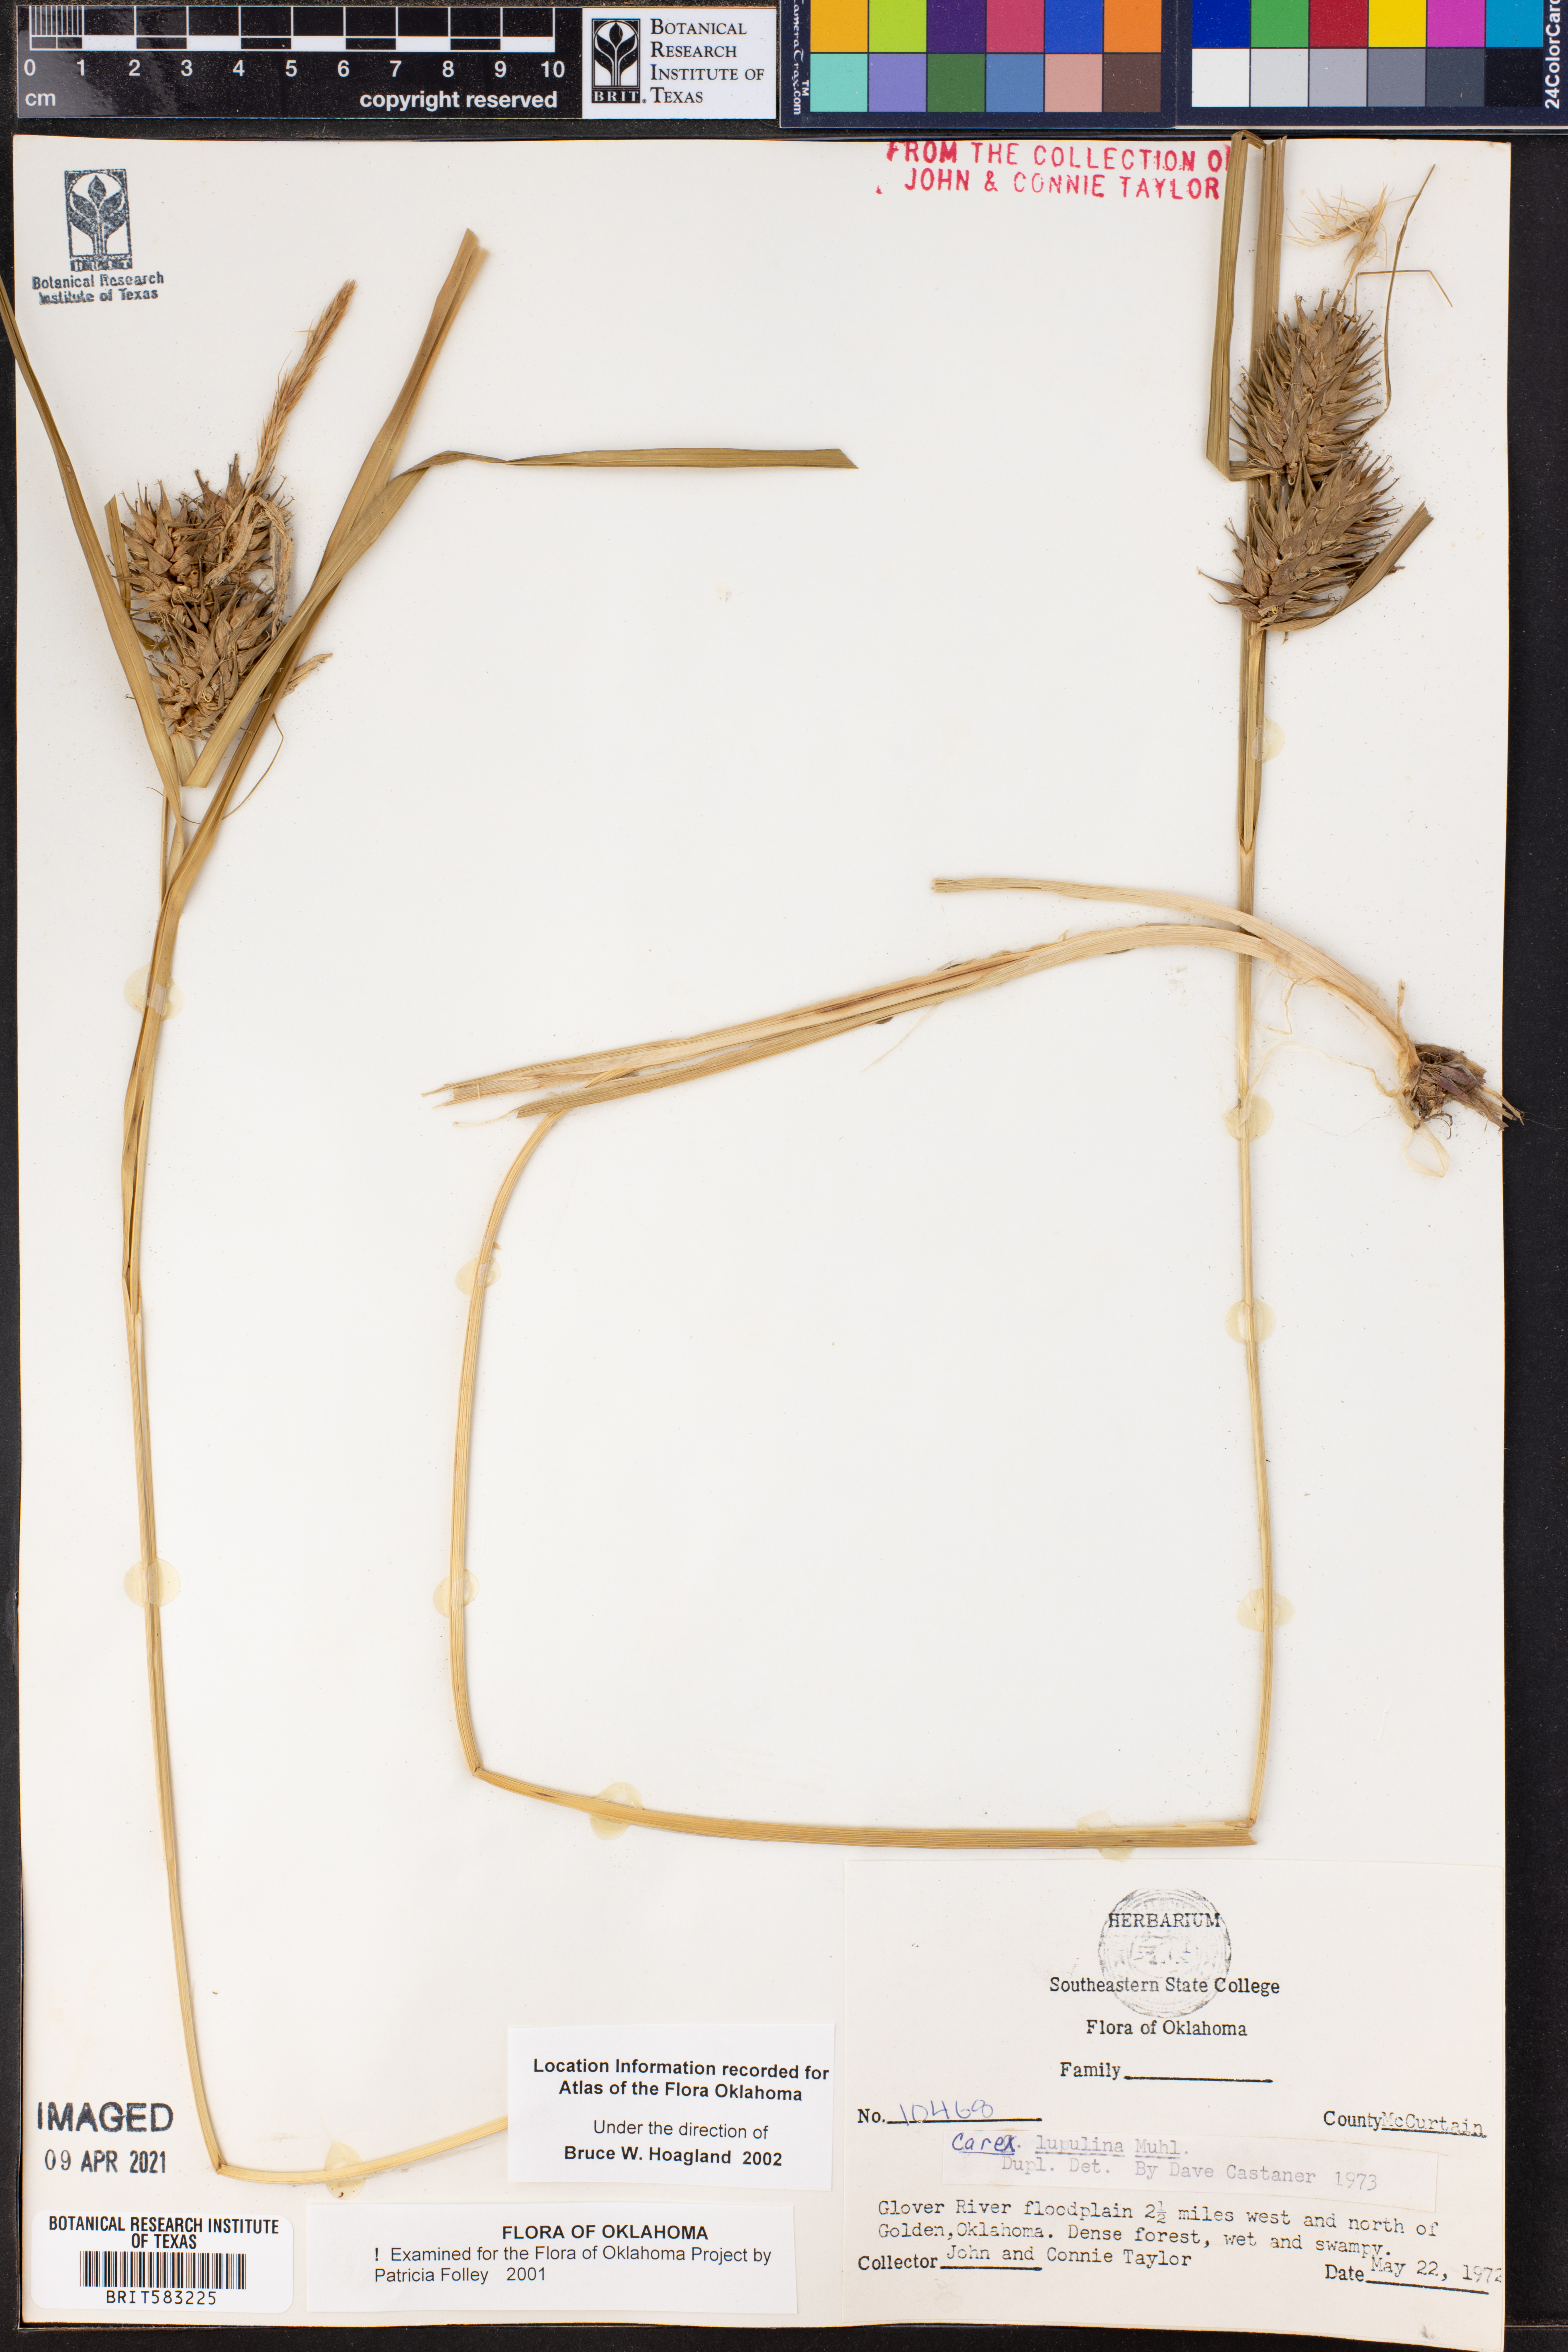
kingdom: Plantae
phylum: Tracheophyta
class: Liliopsida
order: Poales
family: Cyperaceae
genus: Carex
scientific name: Carex lupulina
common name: Hop sedge
